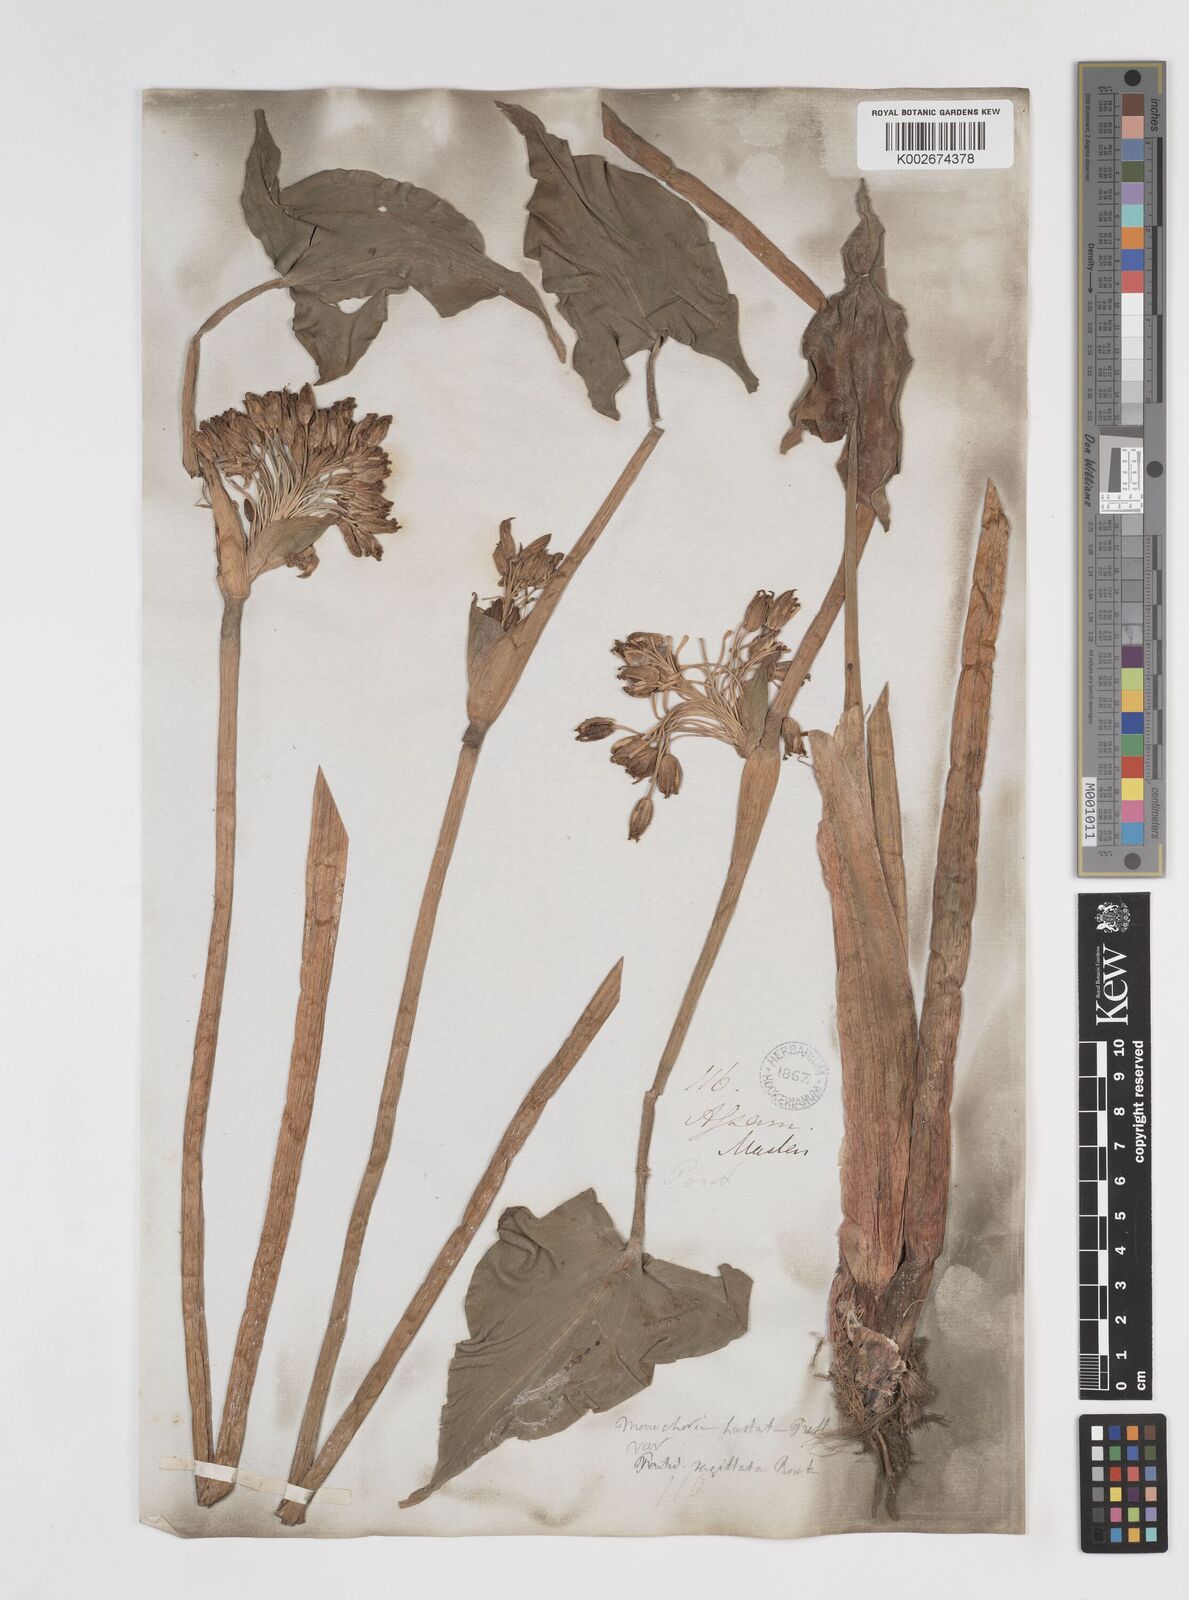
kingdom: Plantae
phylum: Tracheophyta
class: Liliopsida
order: Commelinales
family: Pontederiaceae
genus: Pontederia
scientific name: Pontederia hastata
